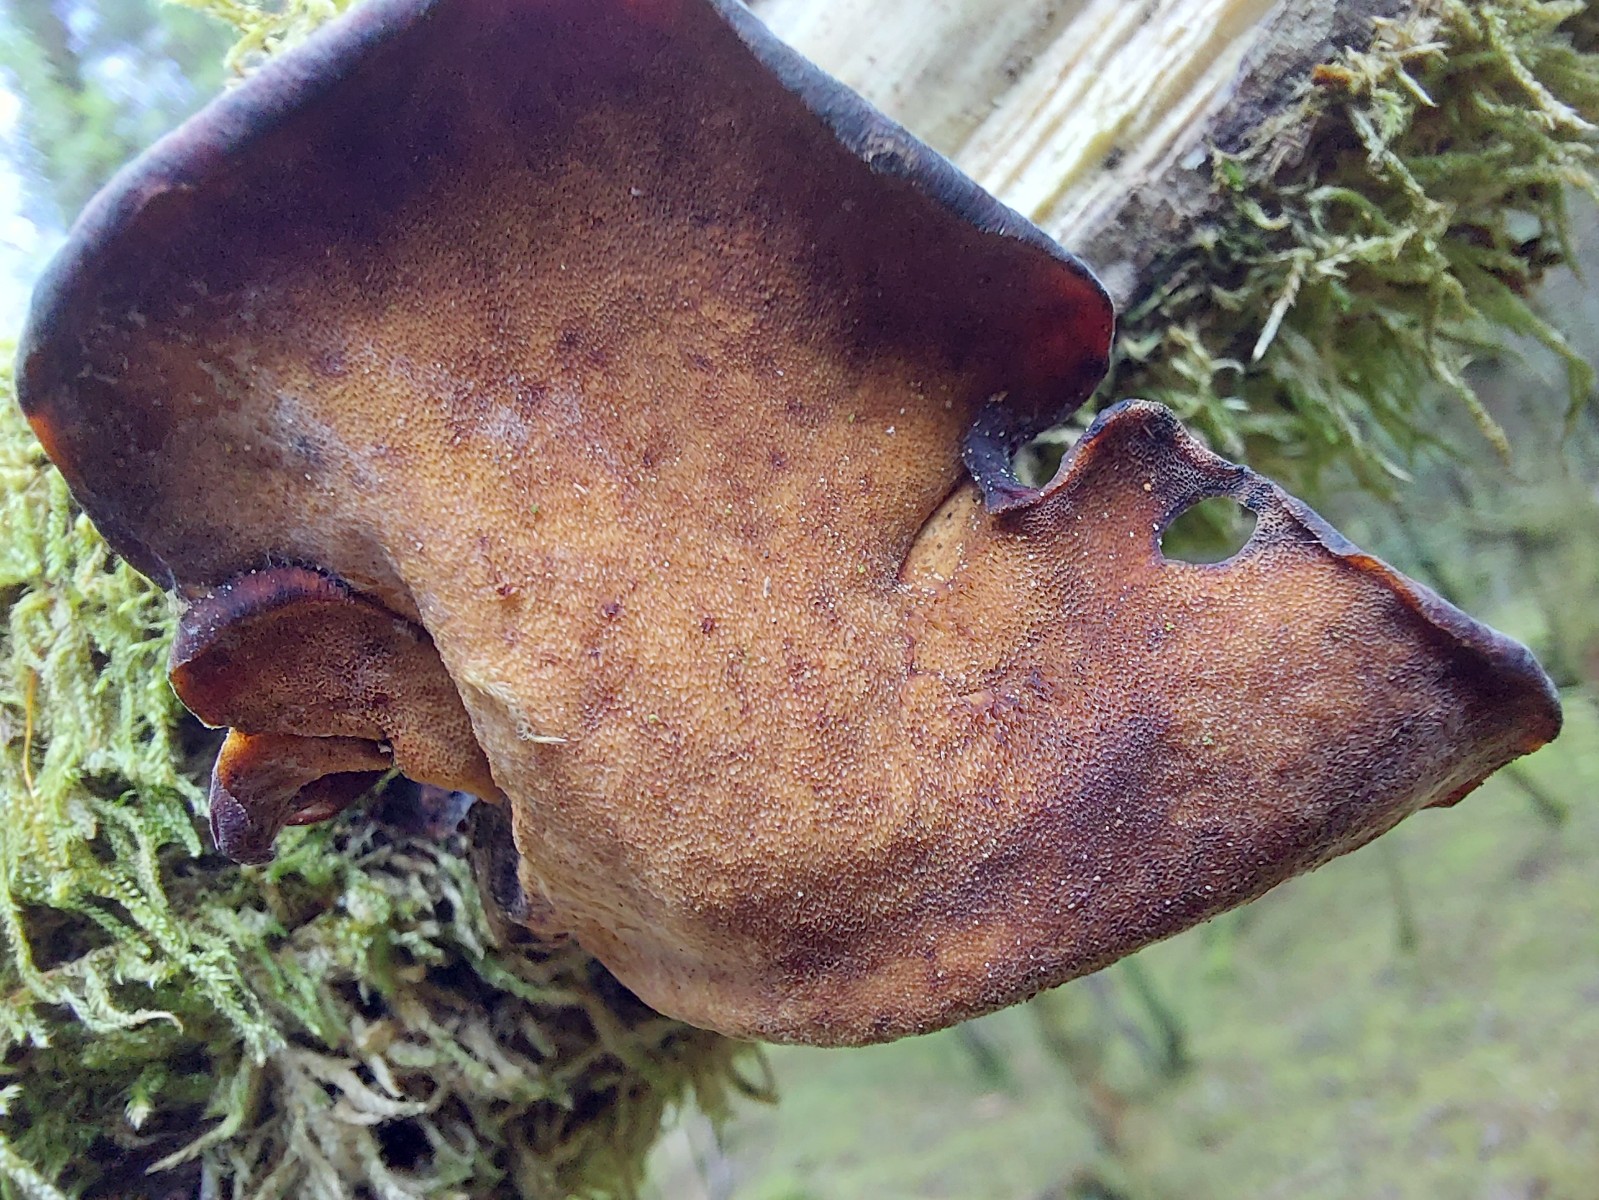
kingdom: Fungi
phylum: Basidiomycota
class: Agaricomycetes
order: Polyporales
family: Polyporaceae
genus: Picipes
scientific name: Picipes tubaeformis
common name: trompet-stilkporesvamp
